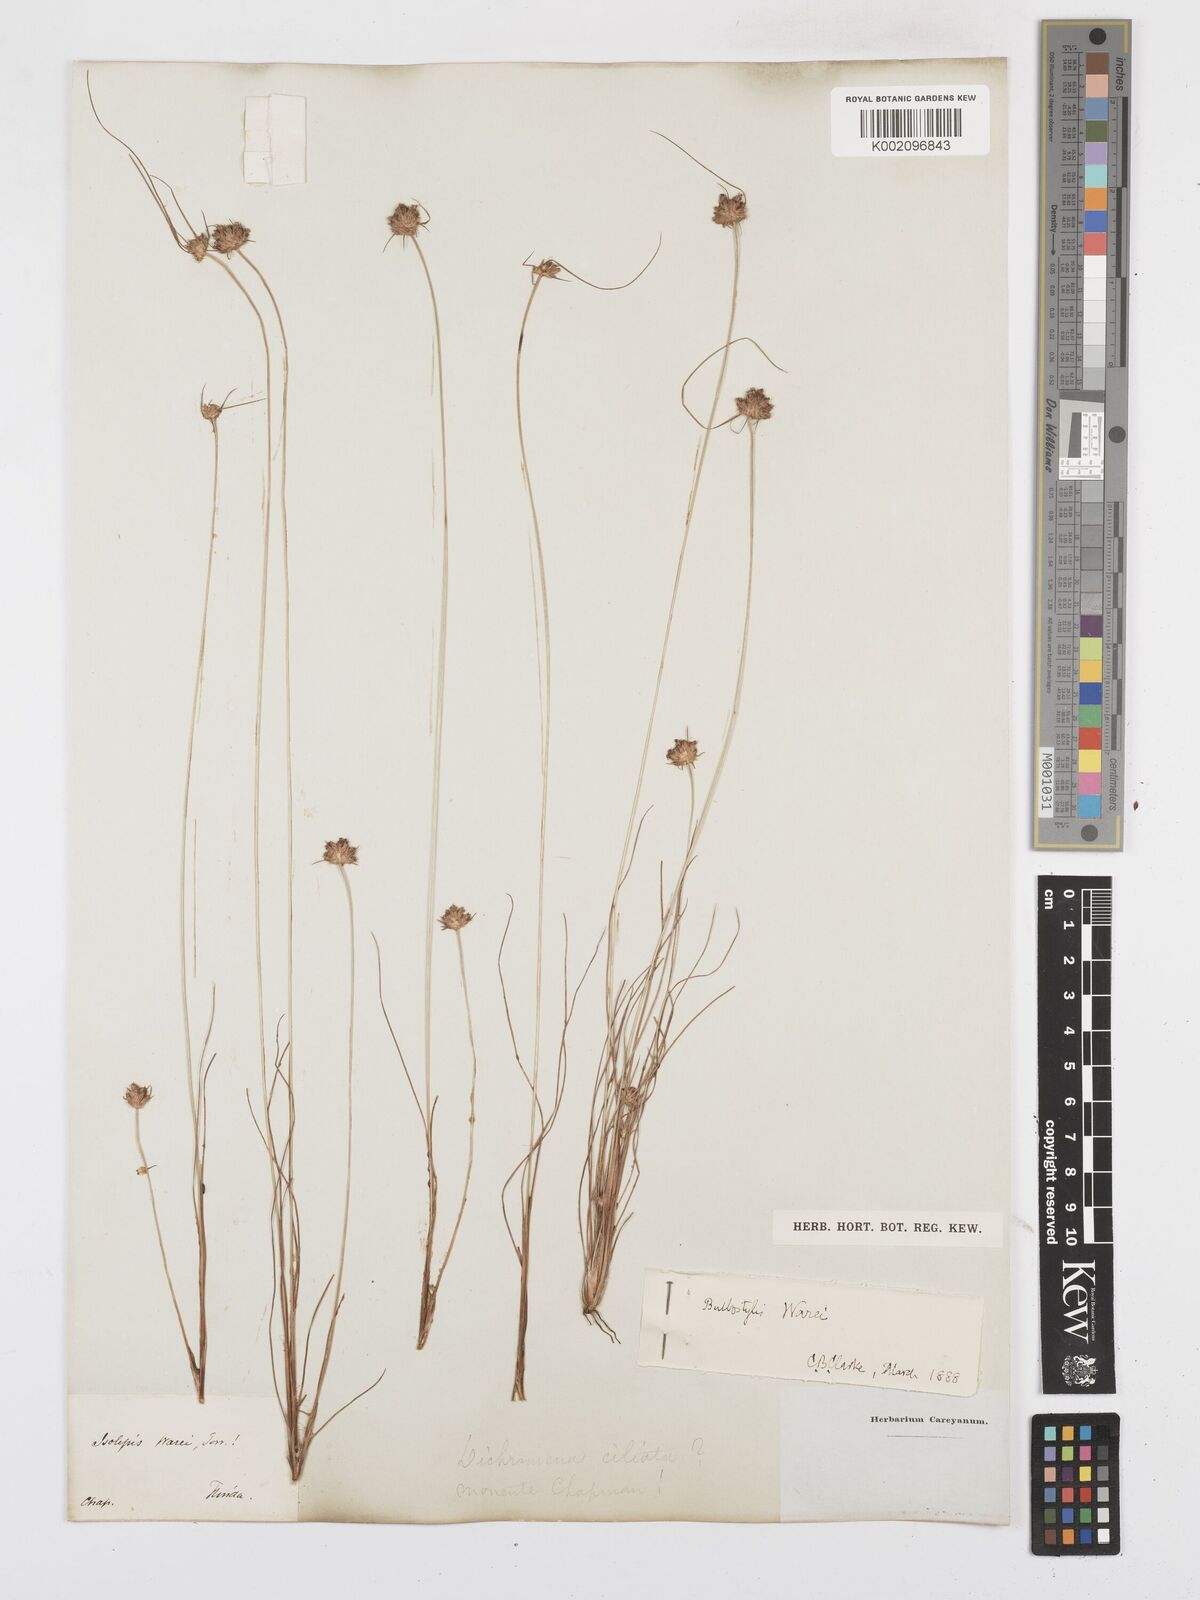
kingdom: Plantae
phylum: Tracheophyta
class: Liliopsida
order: Poales
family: Cyperaceae
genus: Bulbostylis
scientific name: Bulbostylis warei
